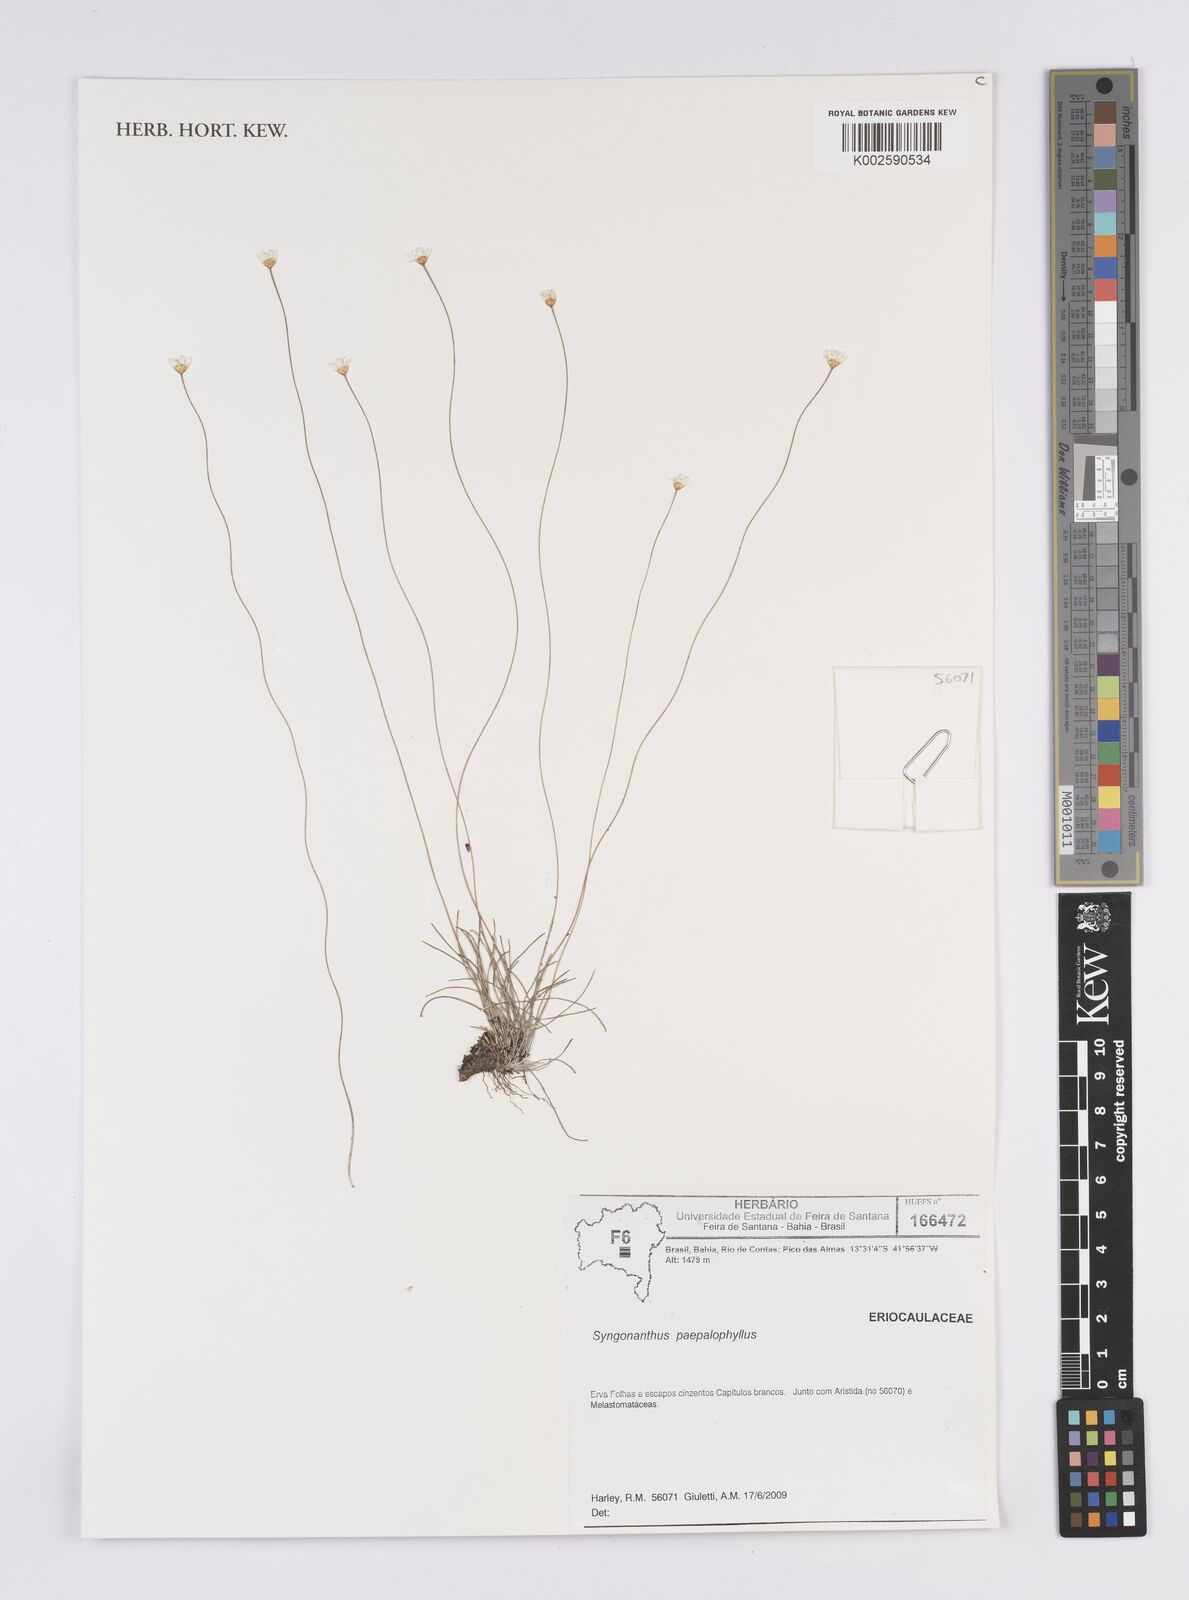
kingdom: Plantae
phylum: Tracheophyta
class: Liliopsida
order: Poales
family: Eriocaulaceae
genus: Comanthera
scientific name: Comanthera paepalophylla
